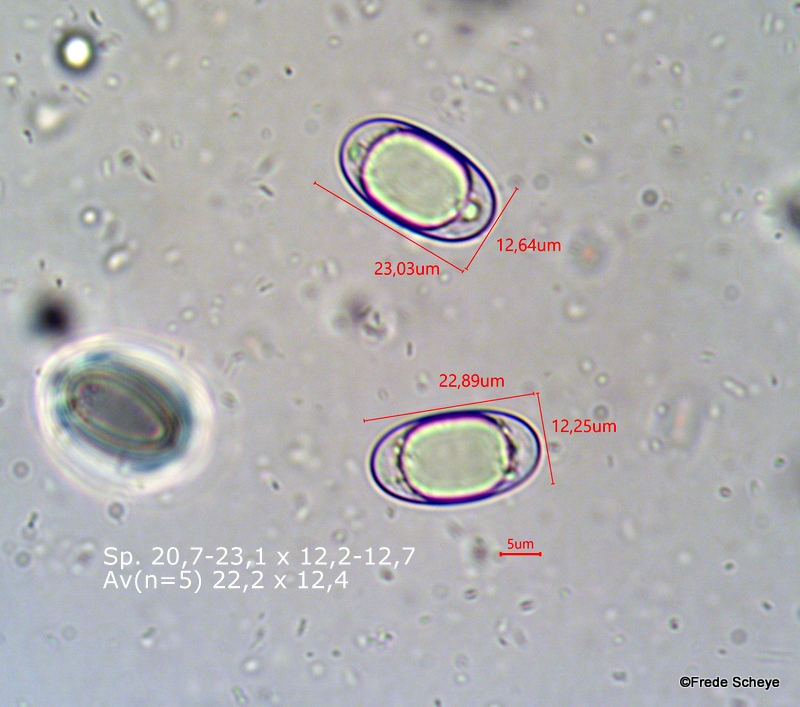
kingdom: Fungi
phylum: Ascomycota
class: Pezizomycetes
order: Pezizales
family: Helvellaceae
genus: Dissingia
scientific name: Dissingia leucomelaena
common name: sorthvid foldhat
